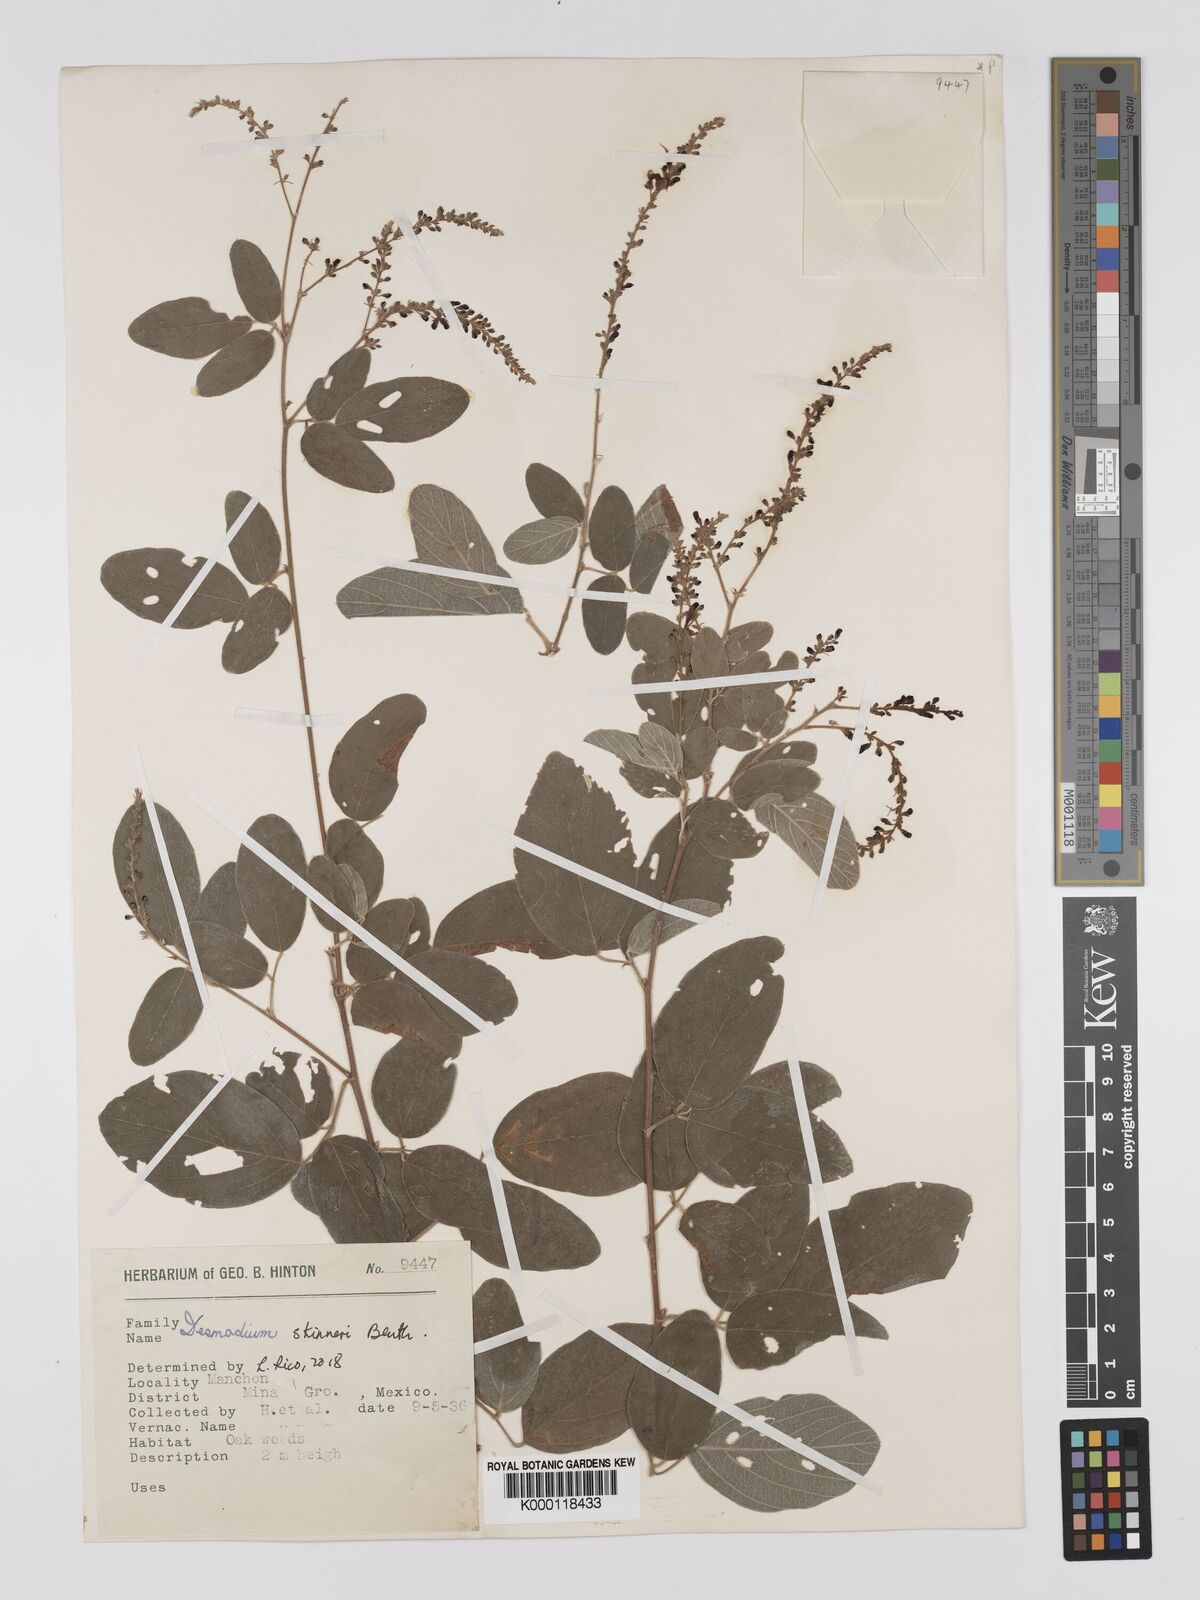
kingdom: Plantae
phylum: Tracheophyta
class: Magnoliopsida
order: Fabales
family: Fabaceae
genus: Desmodium
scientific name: Desmodium
